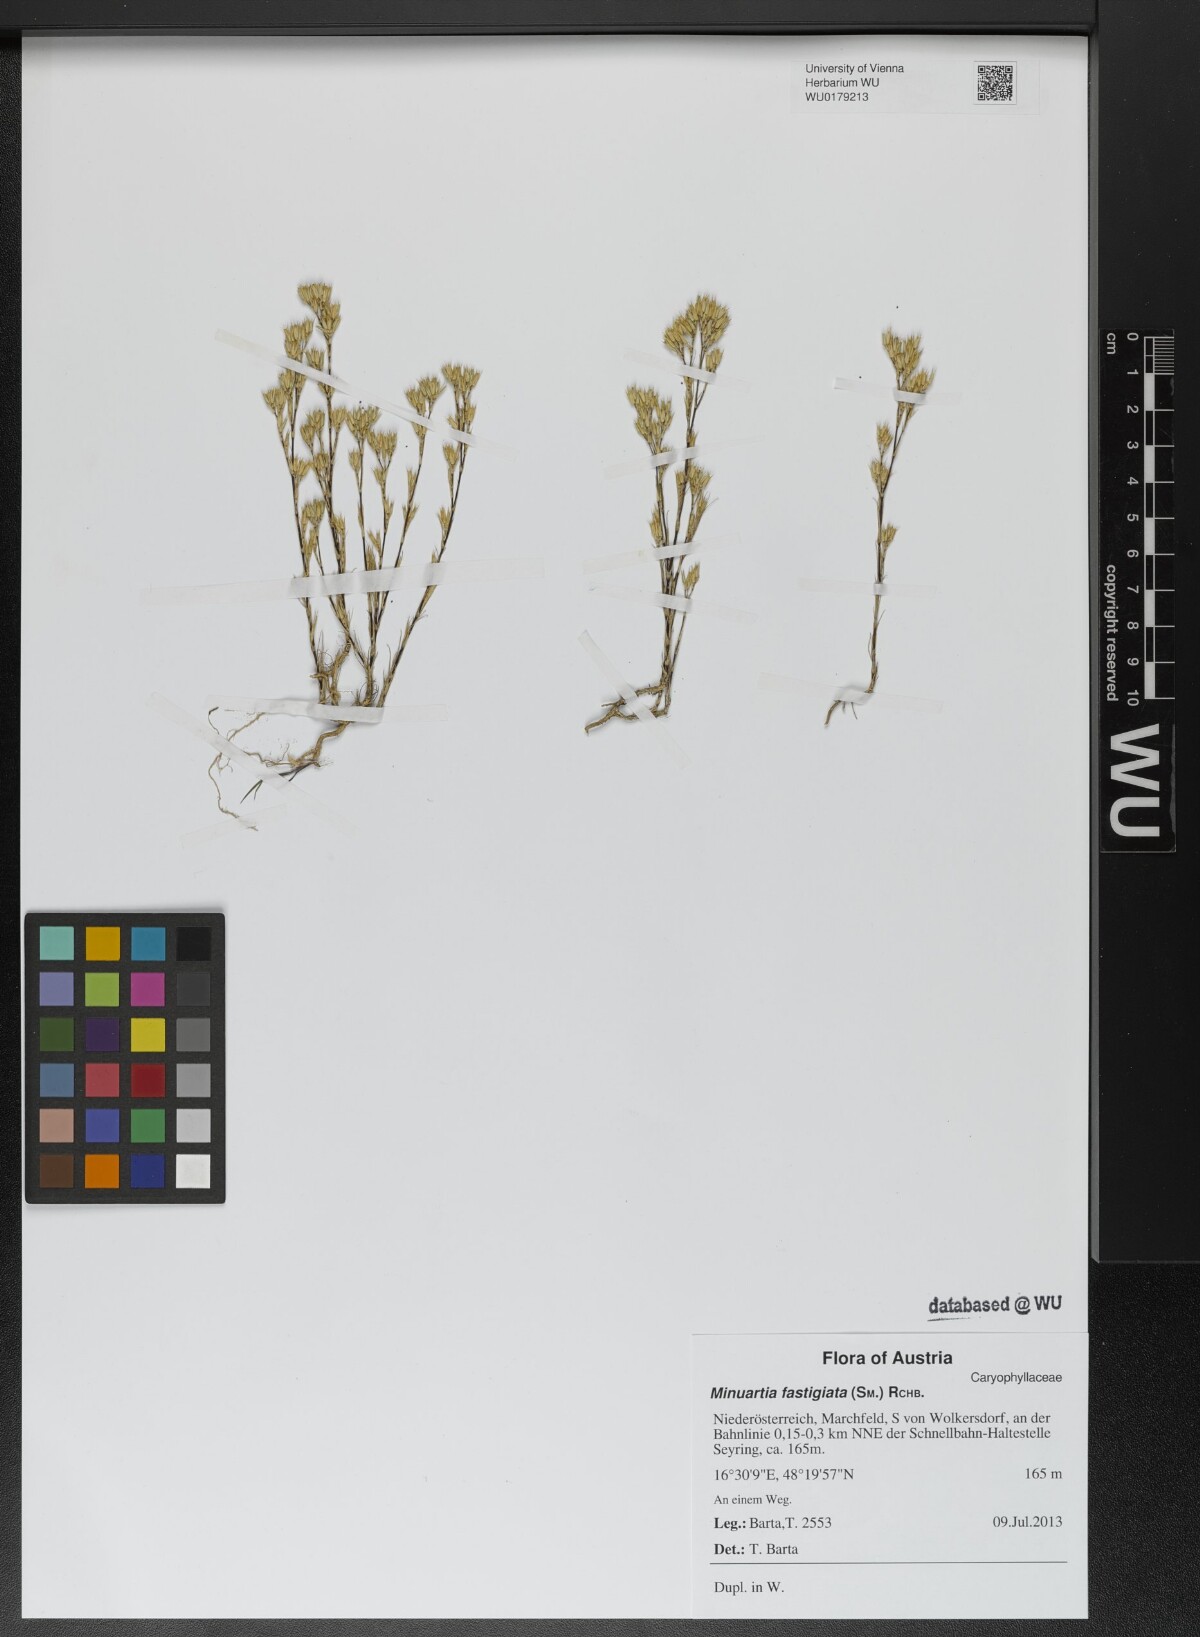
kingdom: Plantae
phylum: Tracheophyta
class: Magnoliopsida
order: Caryophyllales
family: Caryophyllaceae
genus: Minuartia
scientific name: Minuartia mucronata
